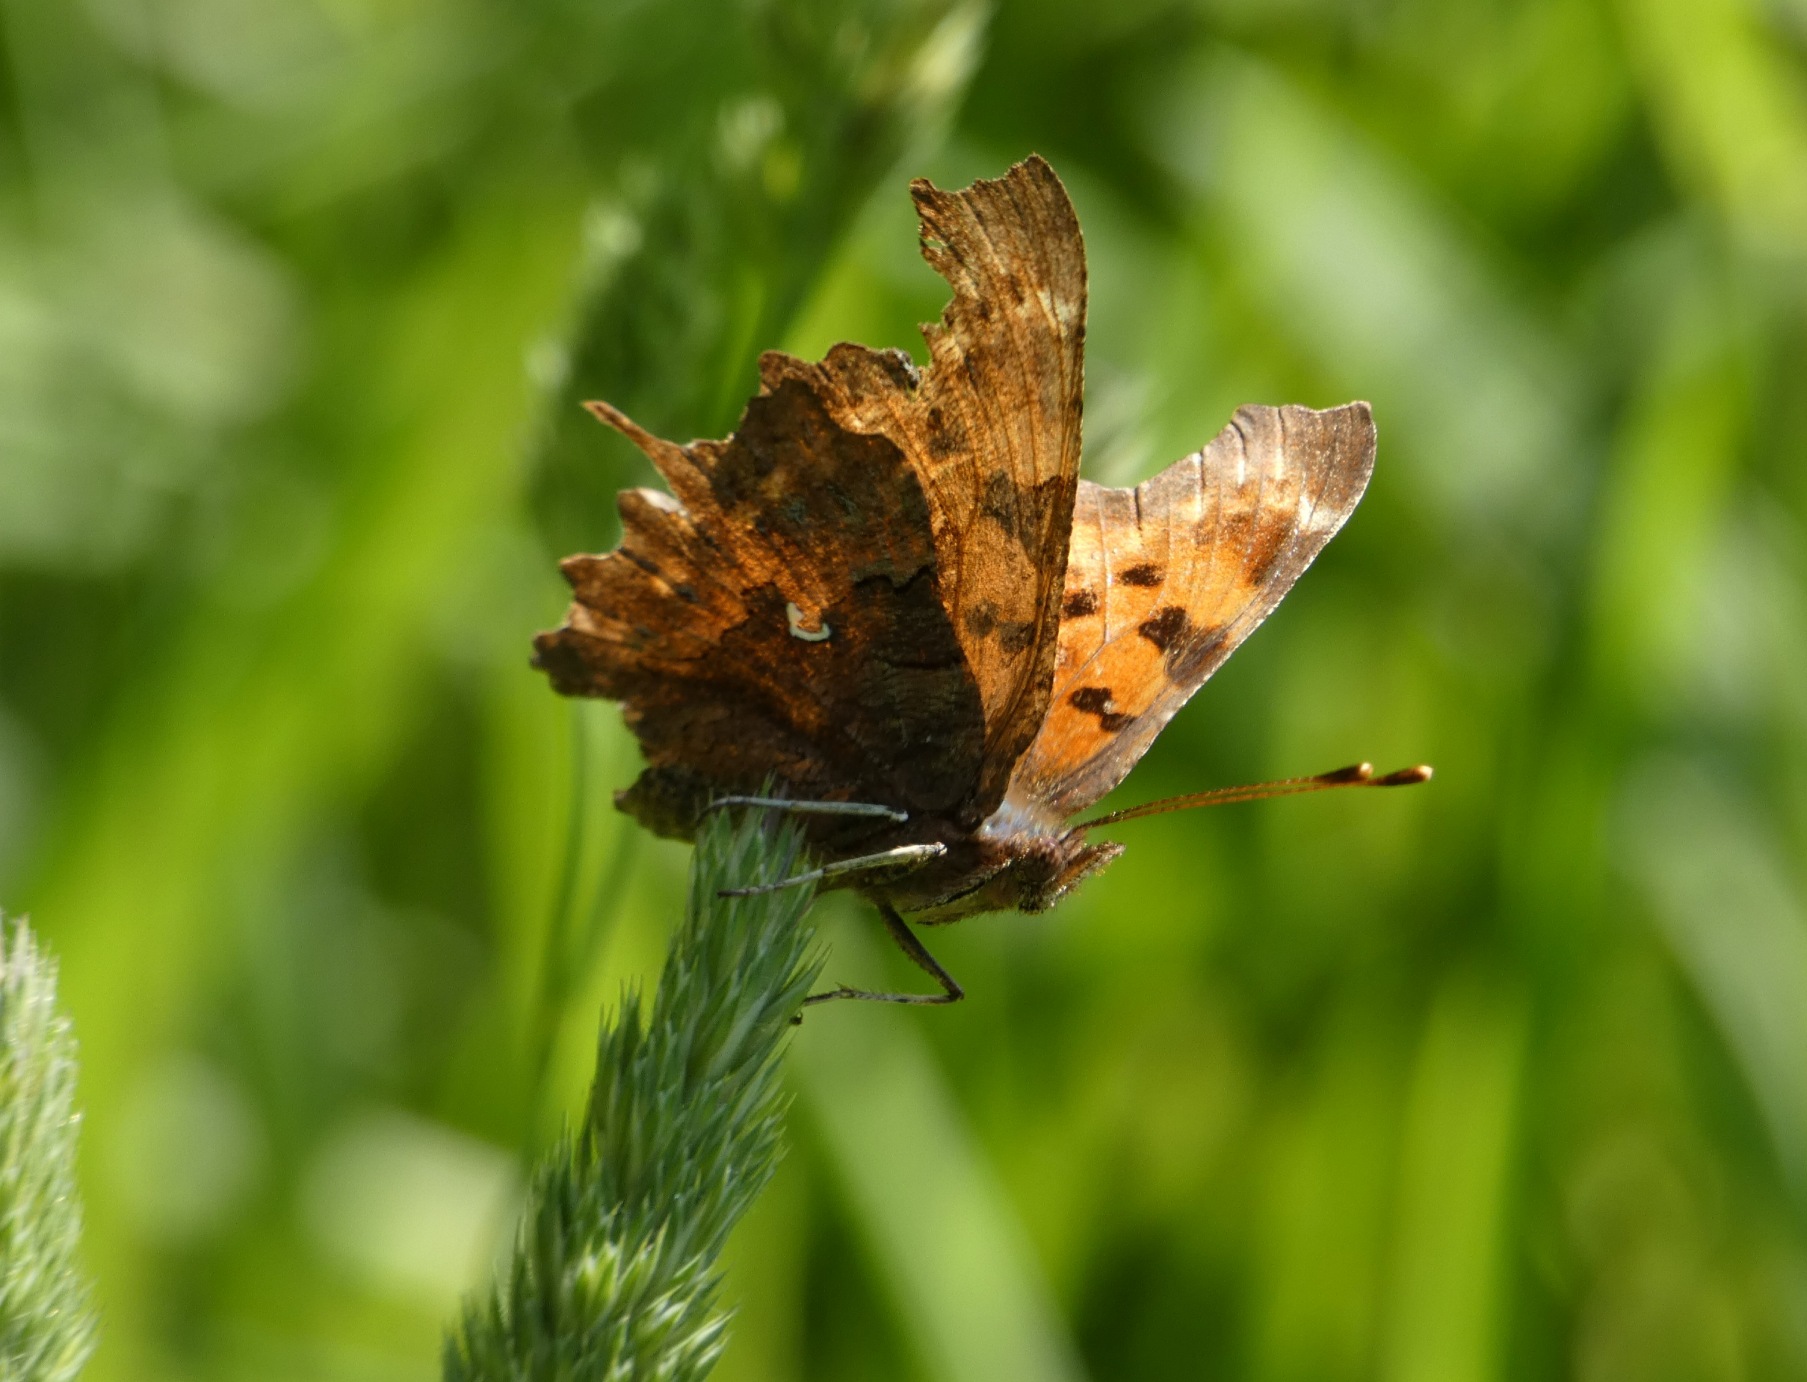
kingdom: Animalia
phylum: Arthropoda
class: Insecta
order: Lepidoptera
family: Nymphalidae
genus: Polygonia
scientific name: Polygonia c-album
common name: Det hvide C
